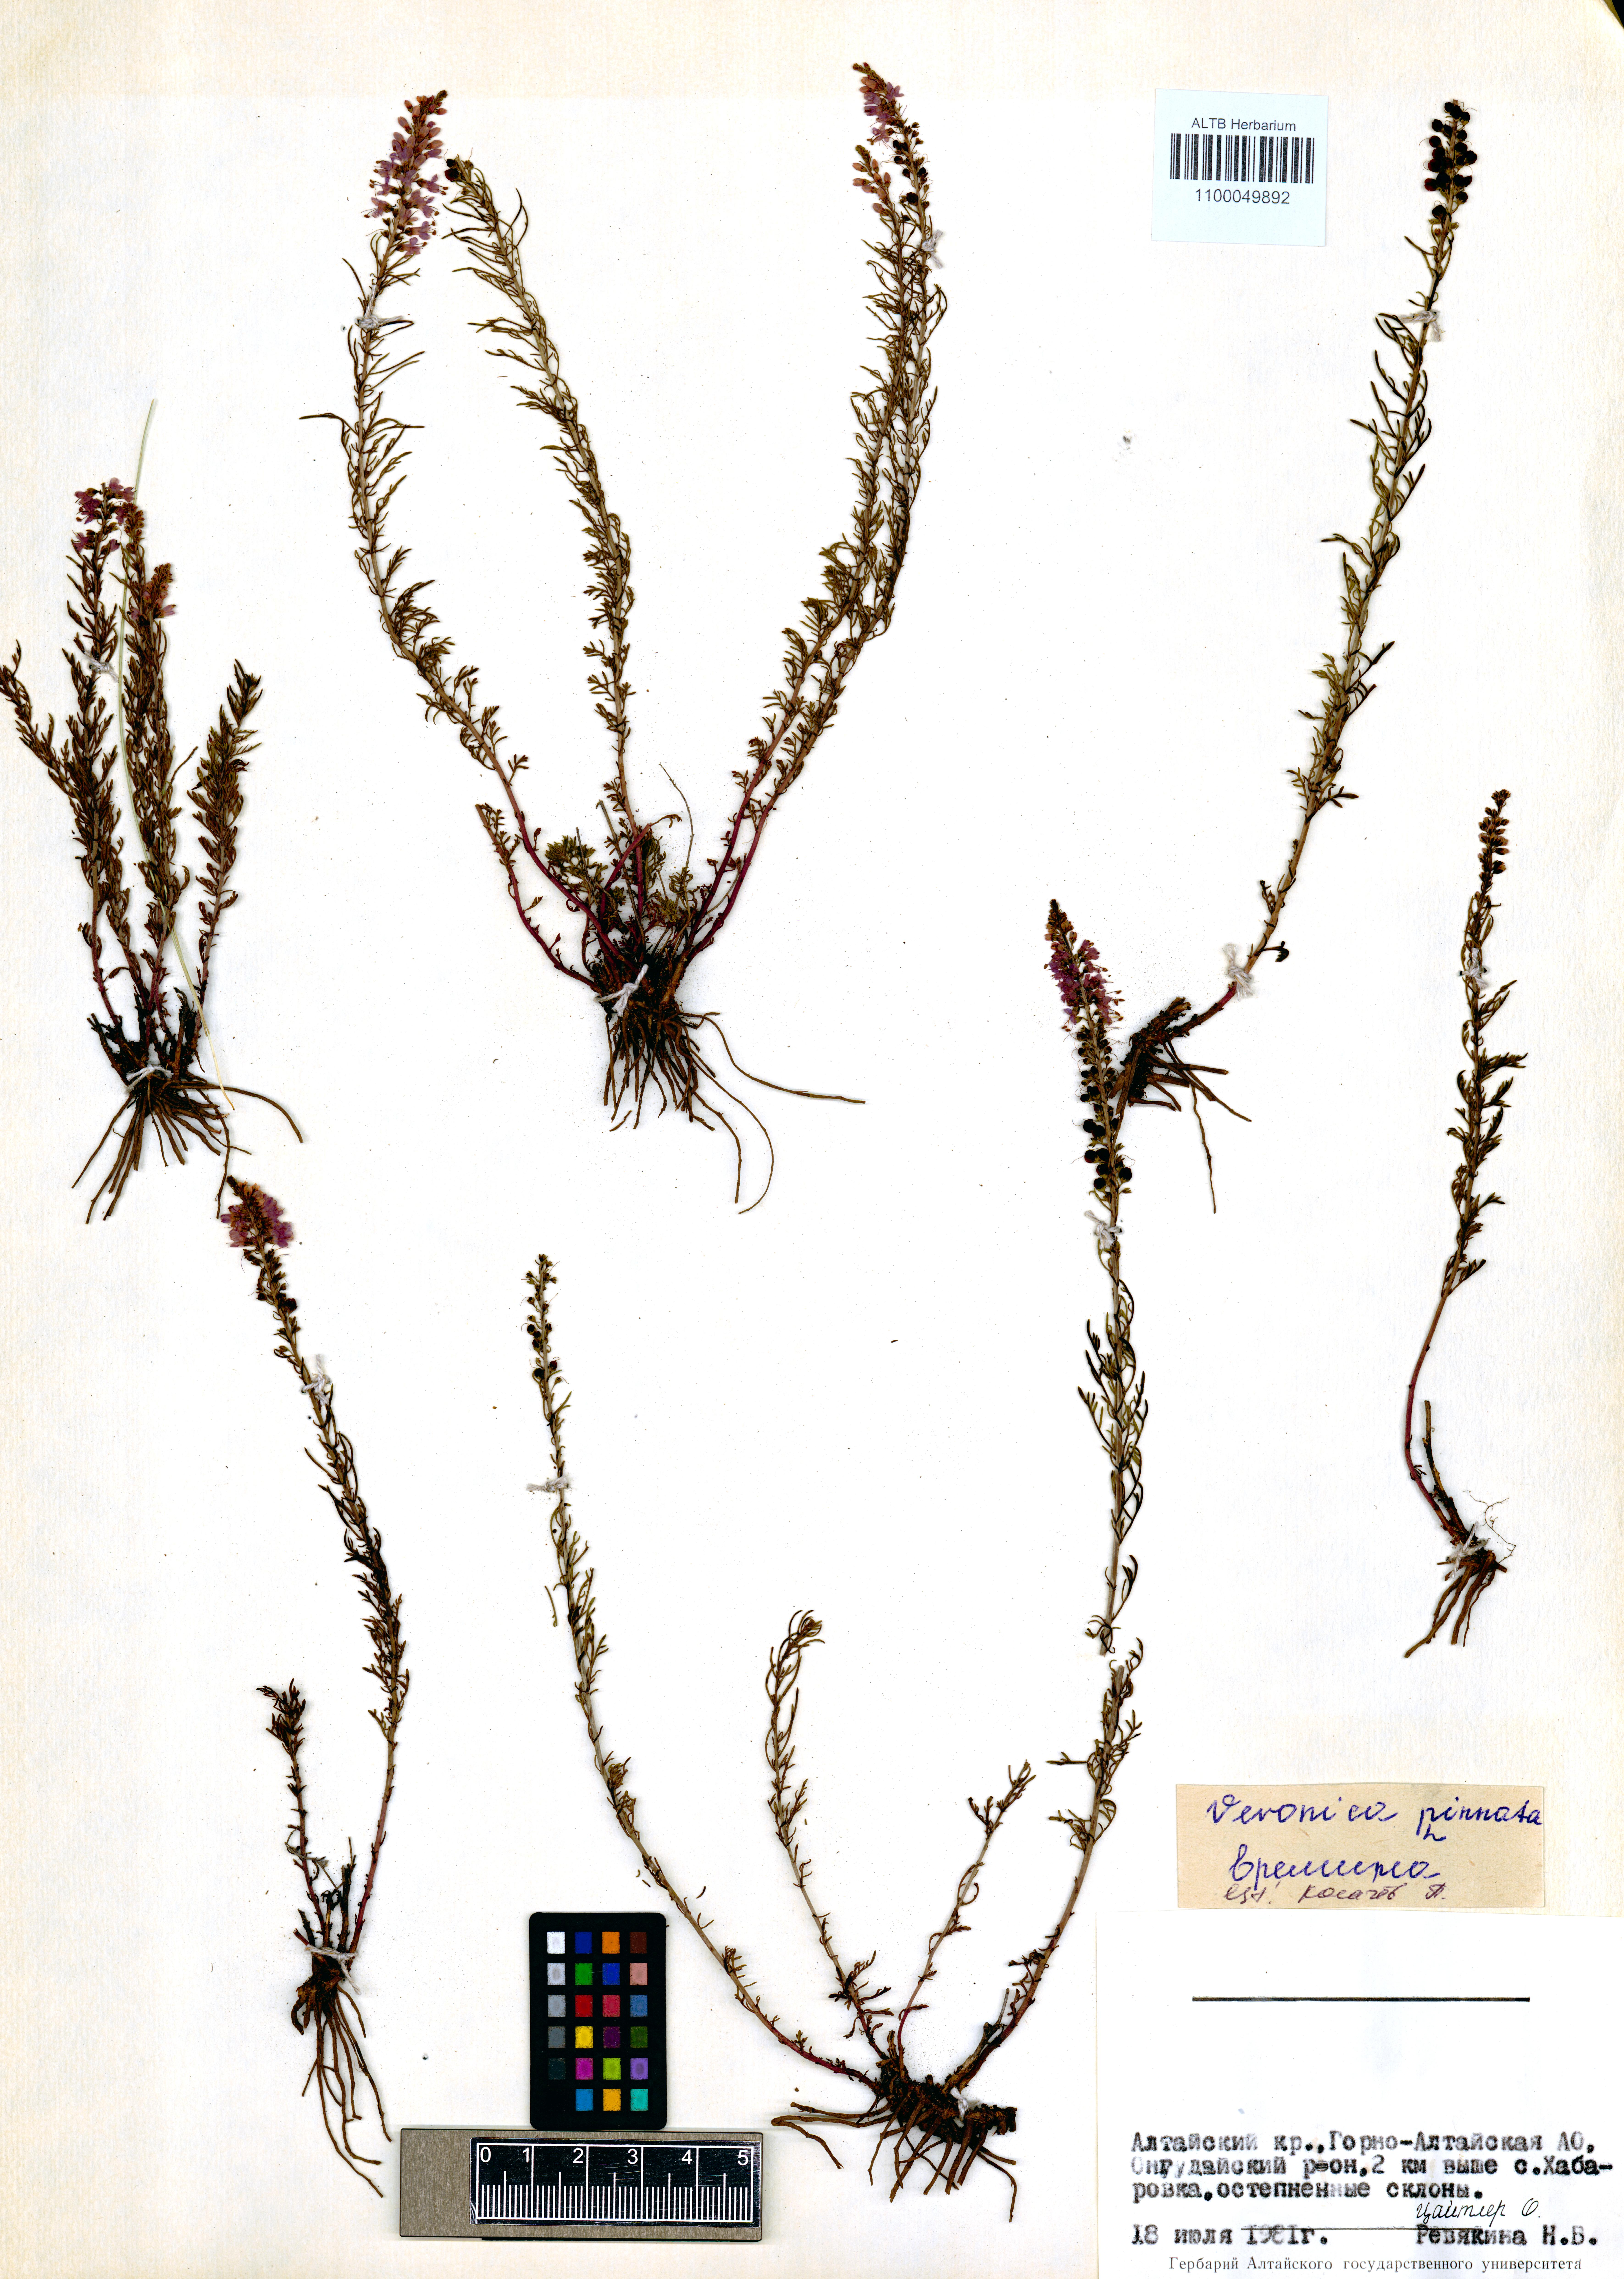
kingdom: Plantae
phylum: Tracheophyta
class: Magnoliopsida
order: Lamiales
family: Plantaginaceae
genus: Veronica
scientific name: Veronica pinnata
